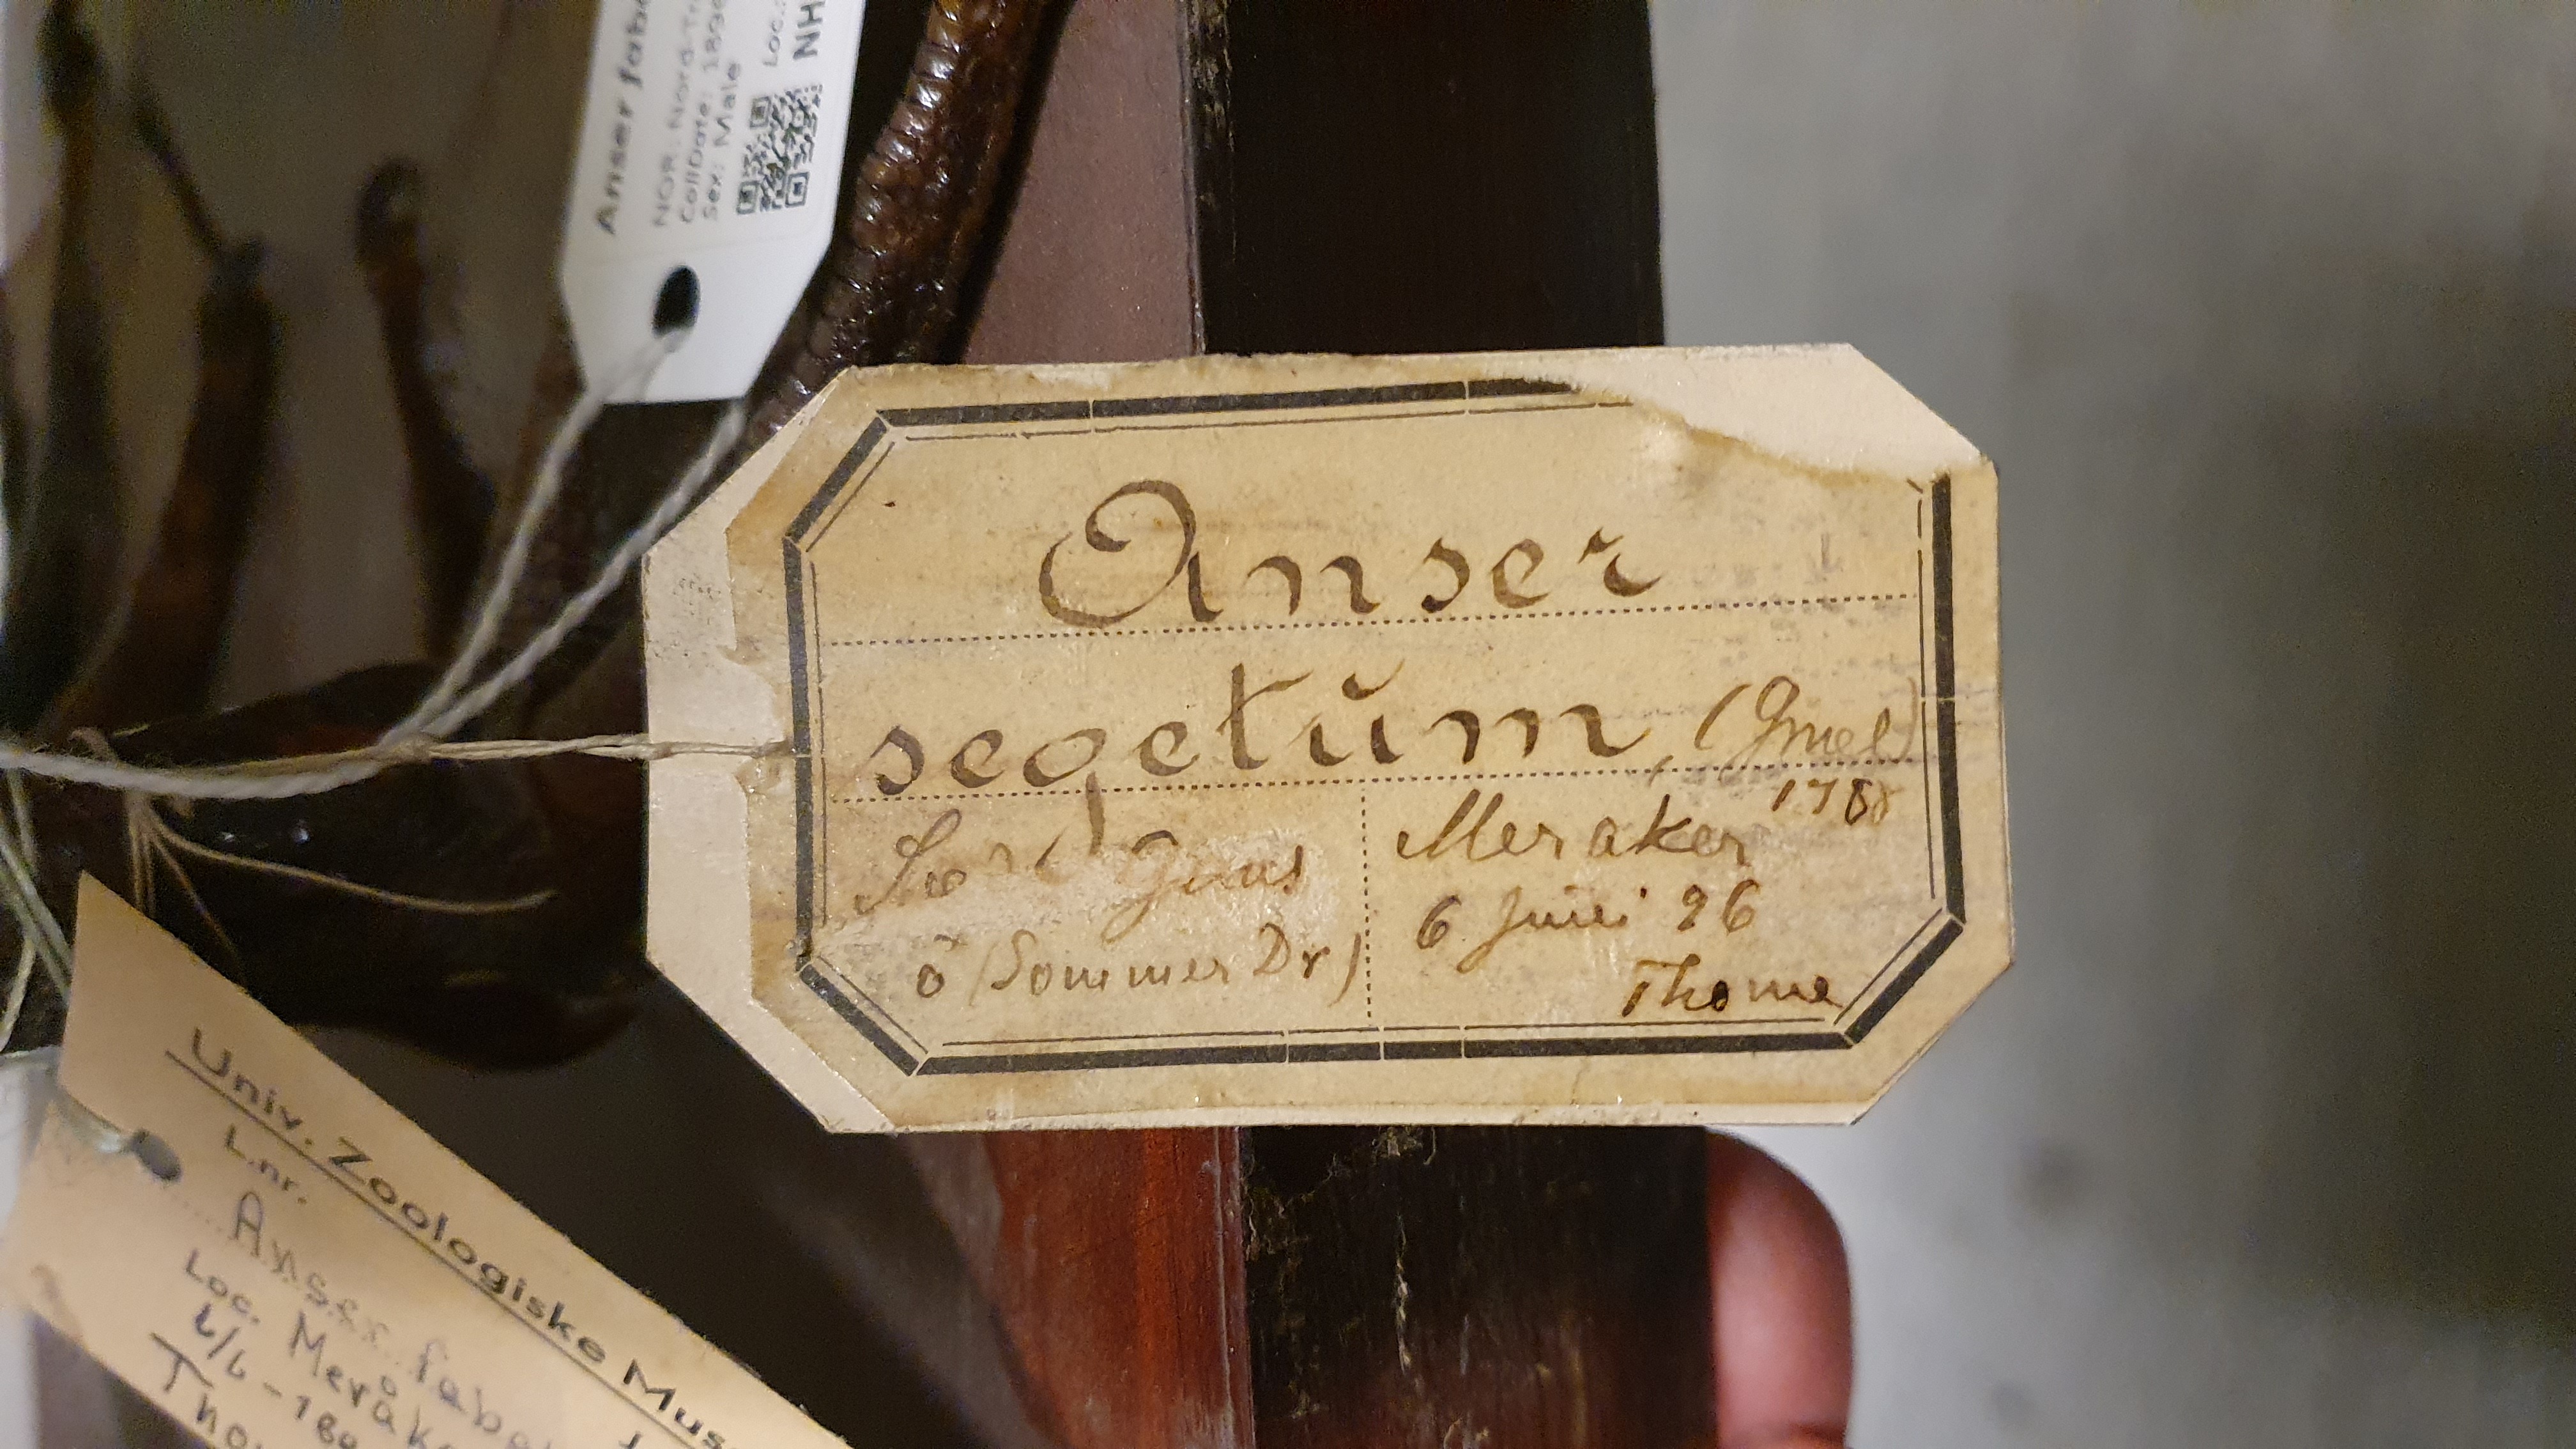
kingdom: Animalia
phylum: Chordata
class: Aves
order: Anseriformes
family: Anatidae
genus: Anser
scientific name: Anser fabalis
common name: Bean goose
